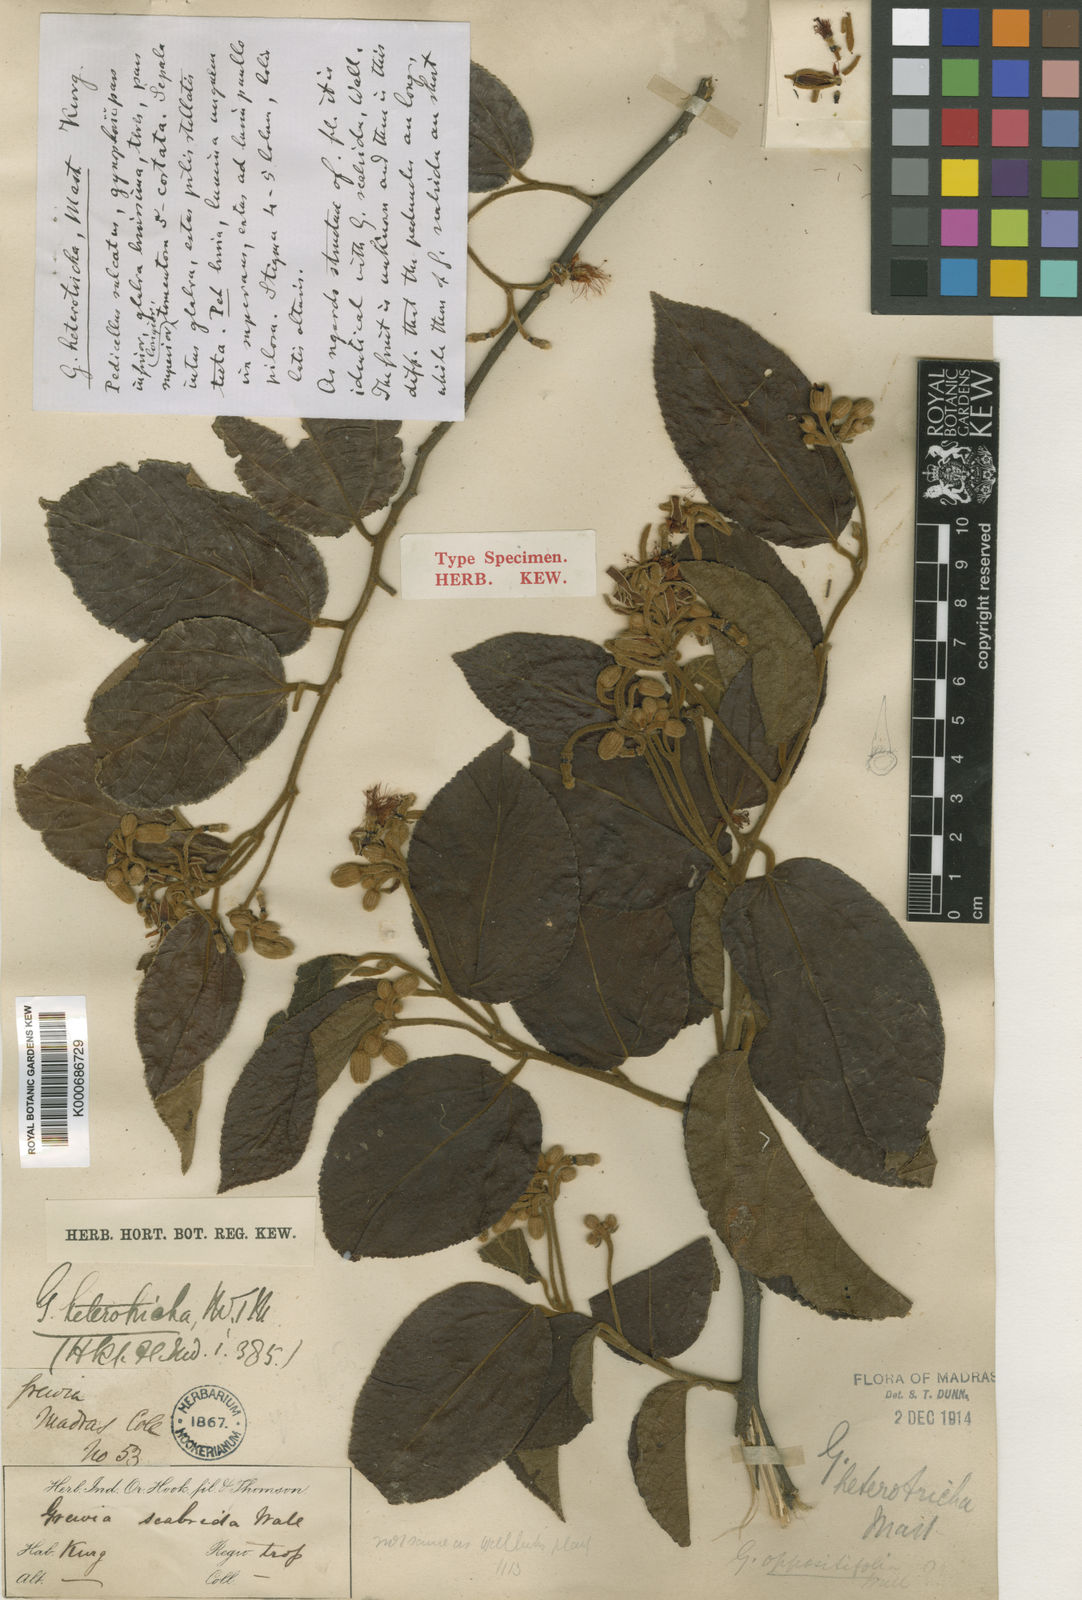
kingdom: Plantae
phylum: Tracheophyta
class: Magnoliopsida
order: Malvales
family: Malvaceae
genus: Grewia
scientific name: Grewia heterotricha
